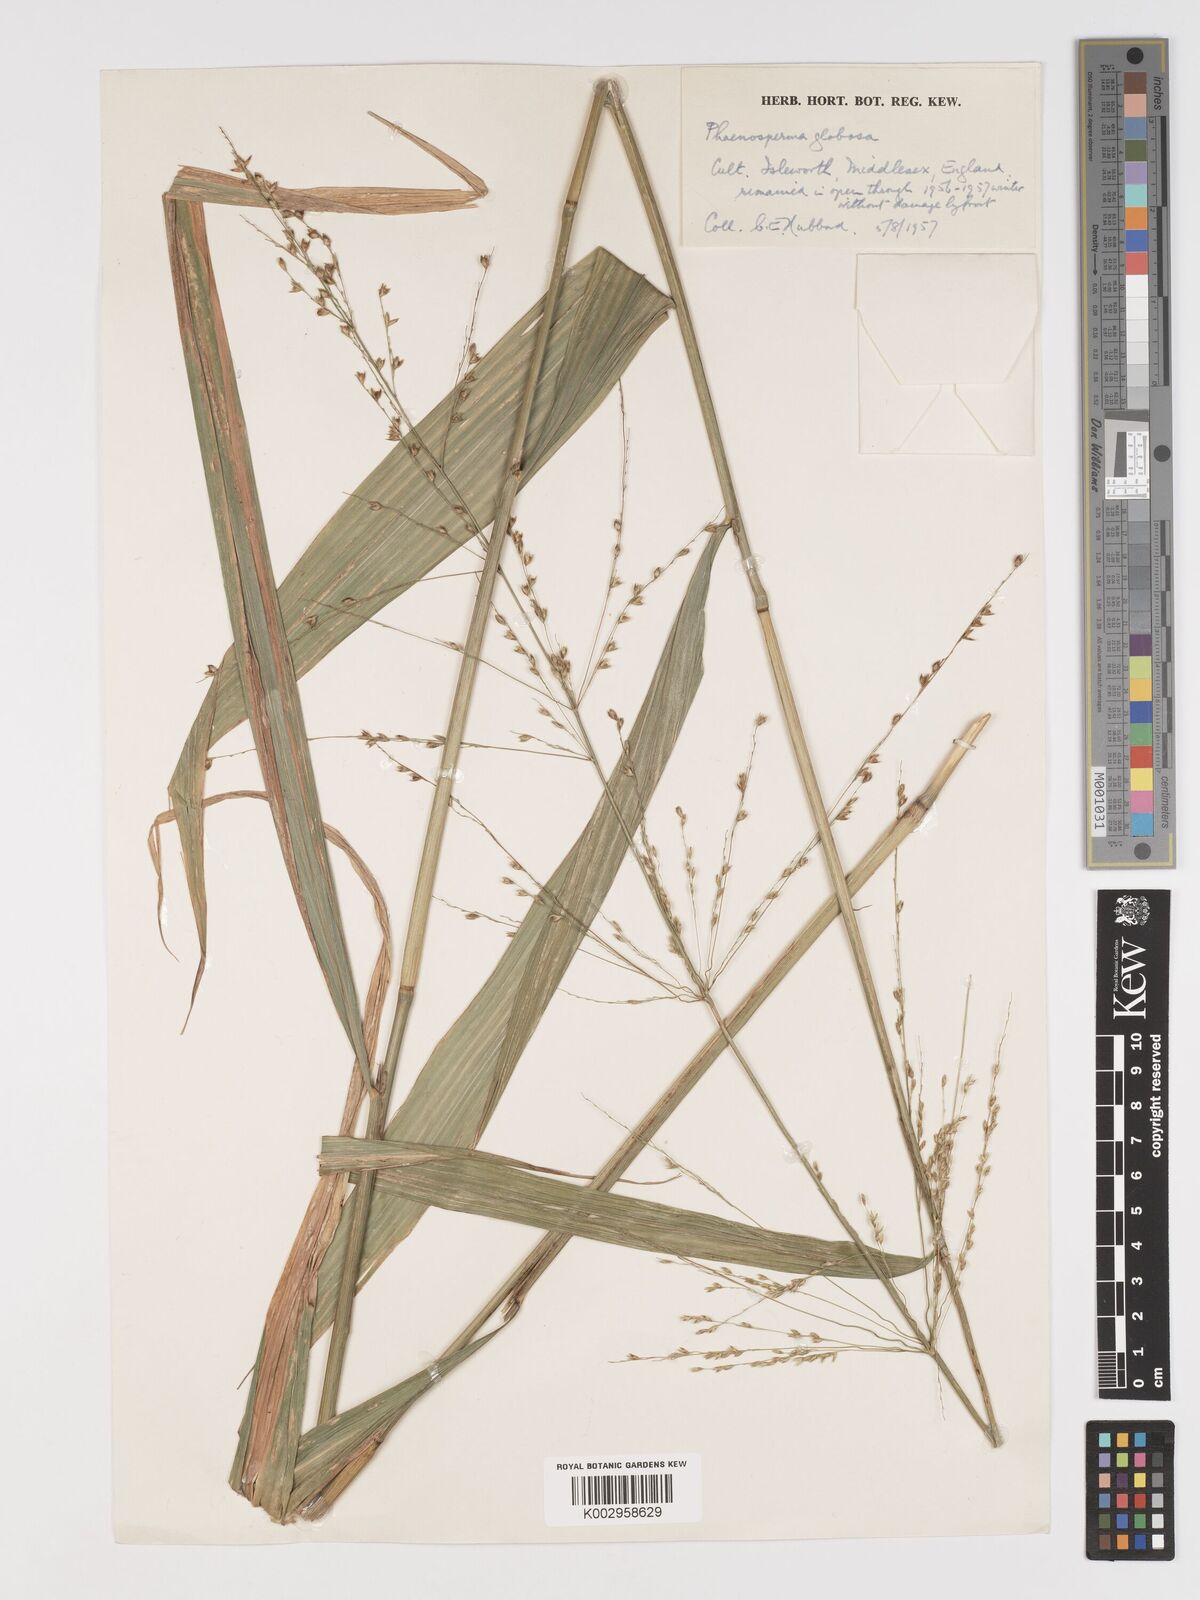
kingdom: Plantae
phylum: Tracheophyta
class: Liliopsida
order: Poales
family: Poaceae
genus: Phaenosperma
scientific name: Phaenosperma globosum
